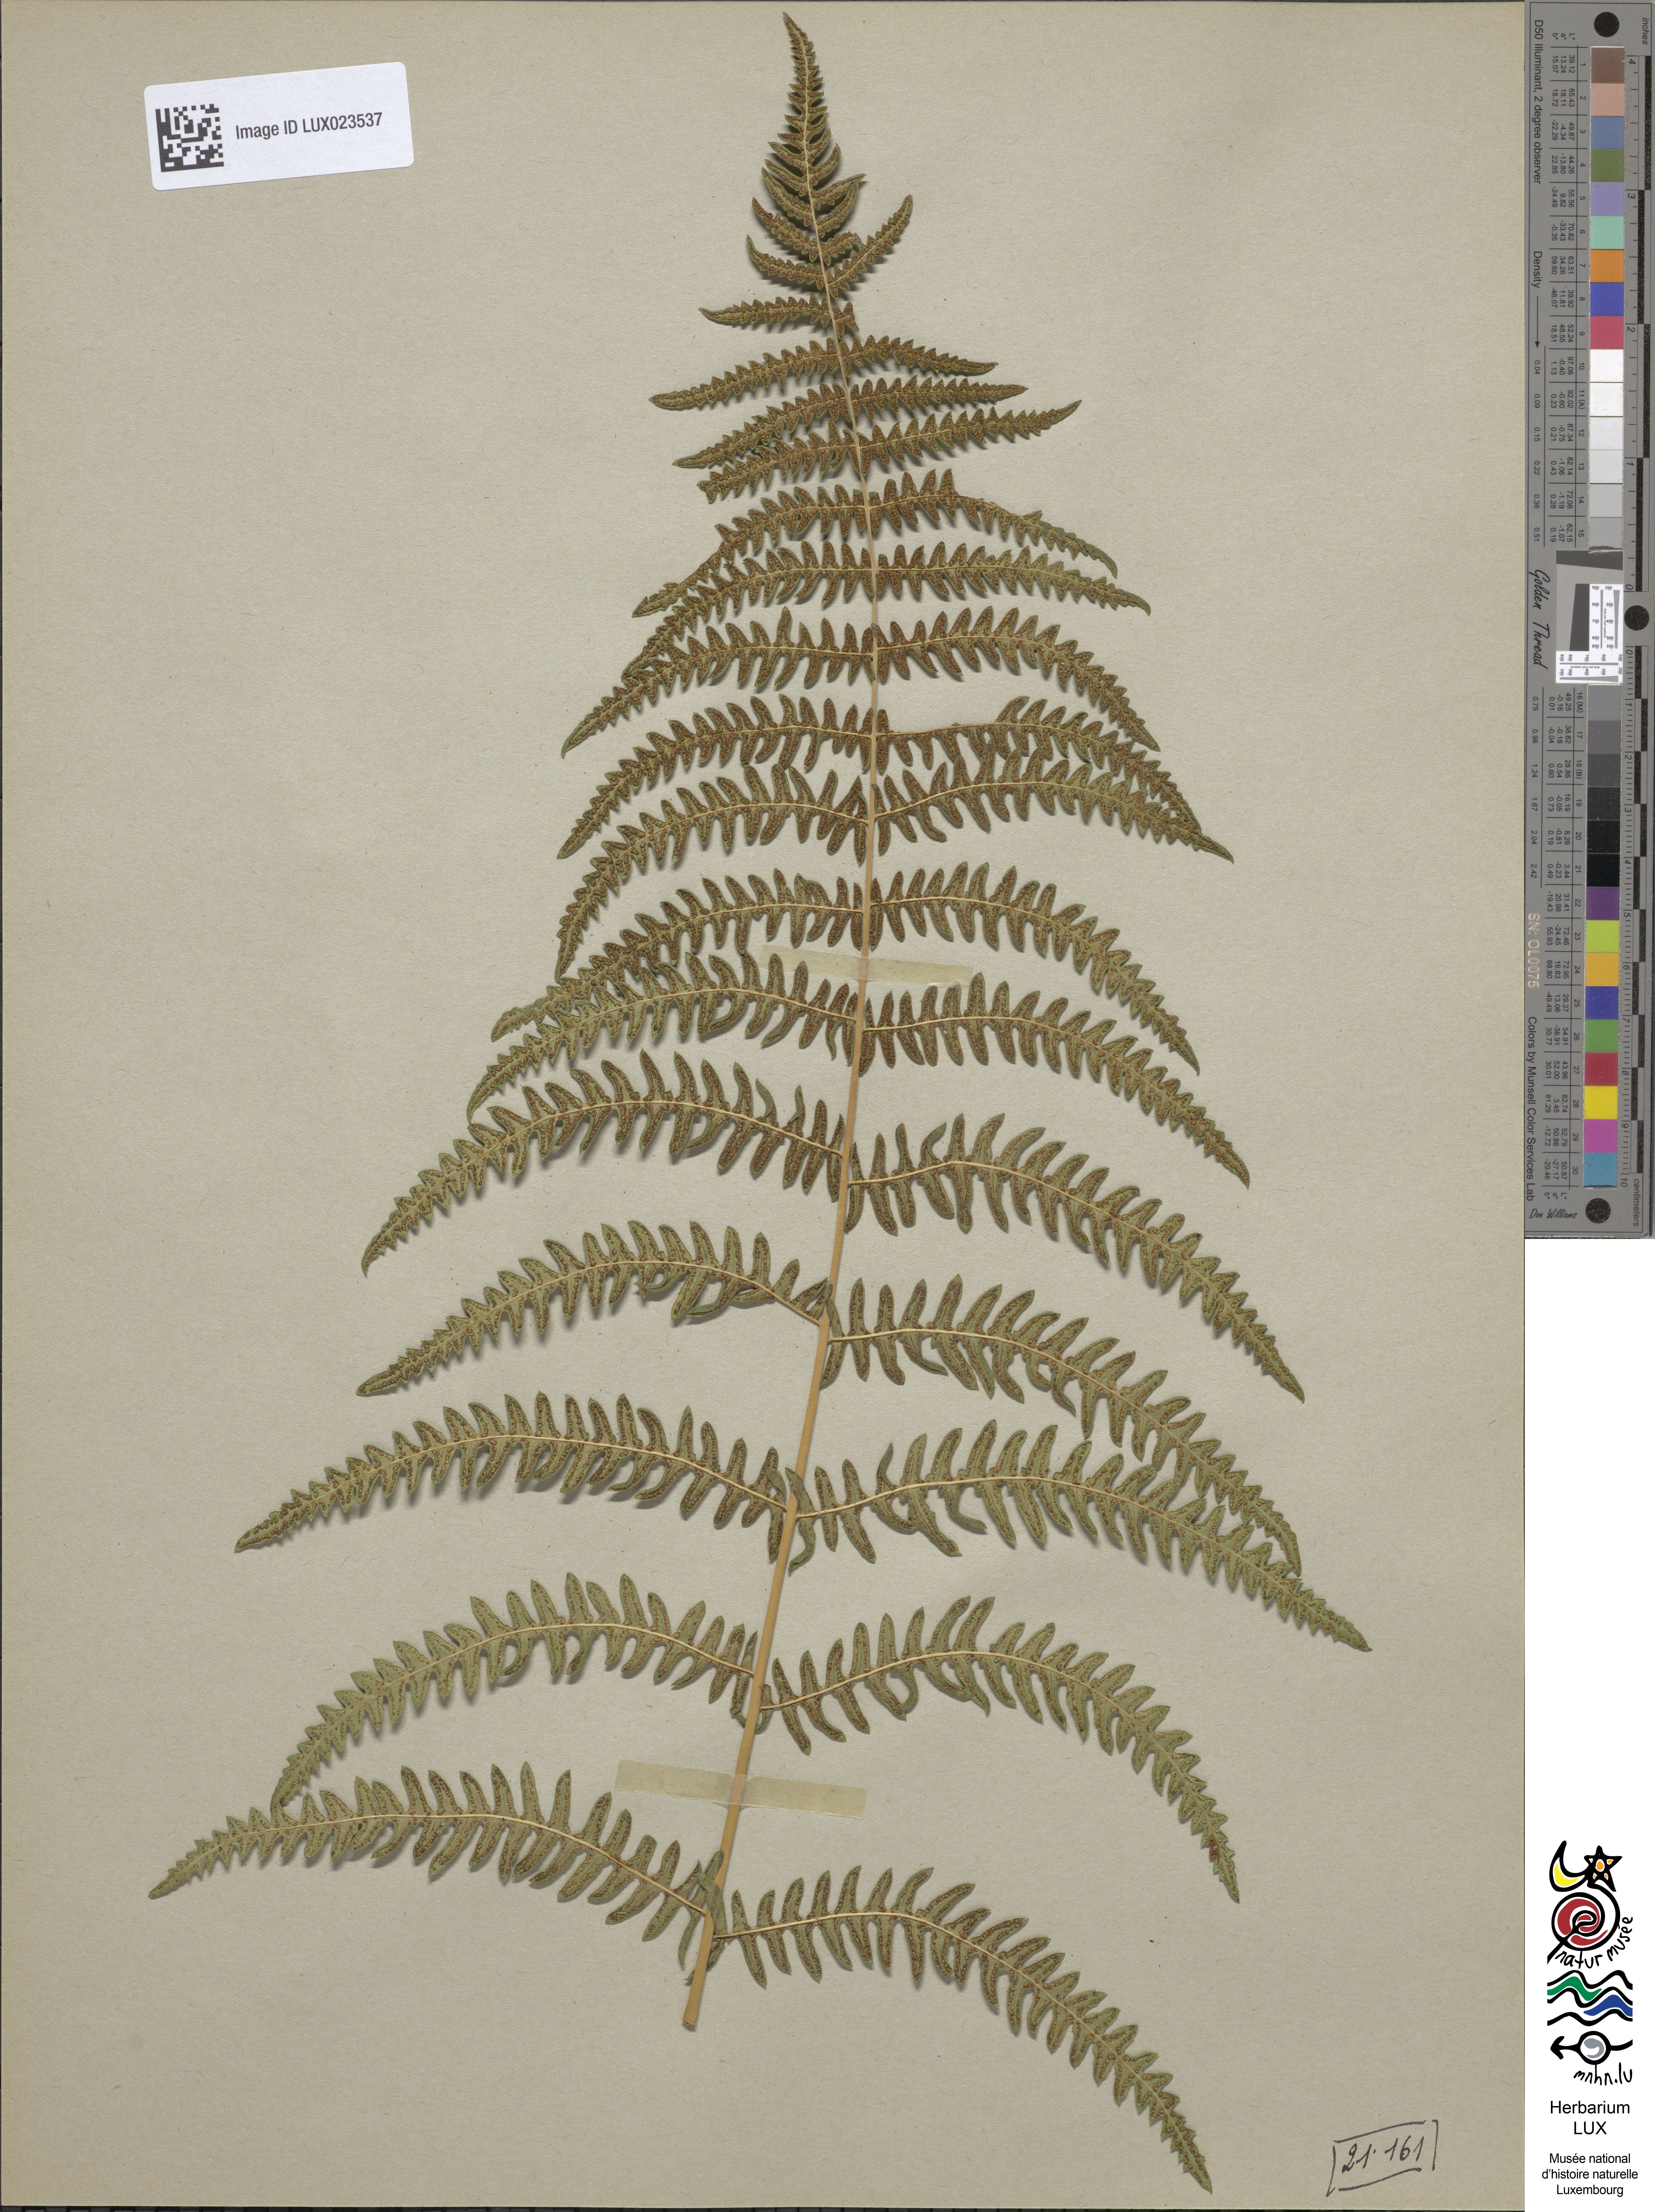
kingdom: Plantae
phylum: Tracheophyta
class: Polypodiopsida
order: Polypodiales
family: Thelypteridaceae
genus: Thelypteris
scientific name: Thelypteris palustris
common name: Marsh fern
